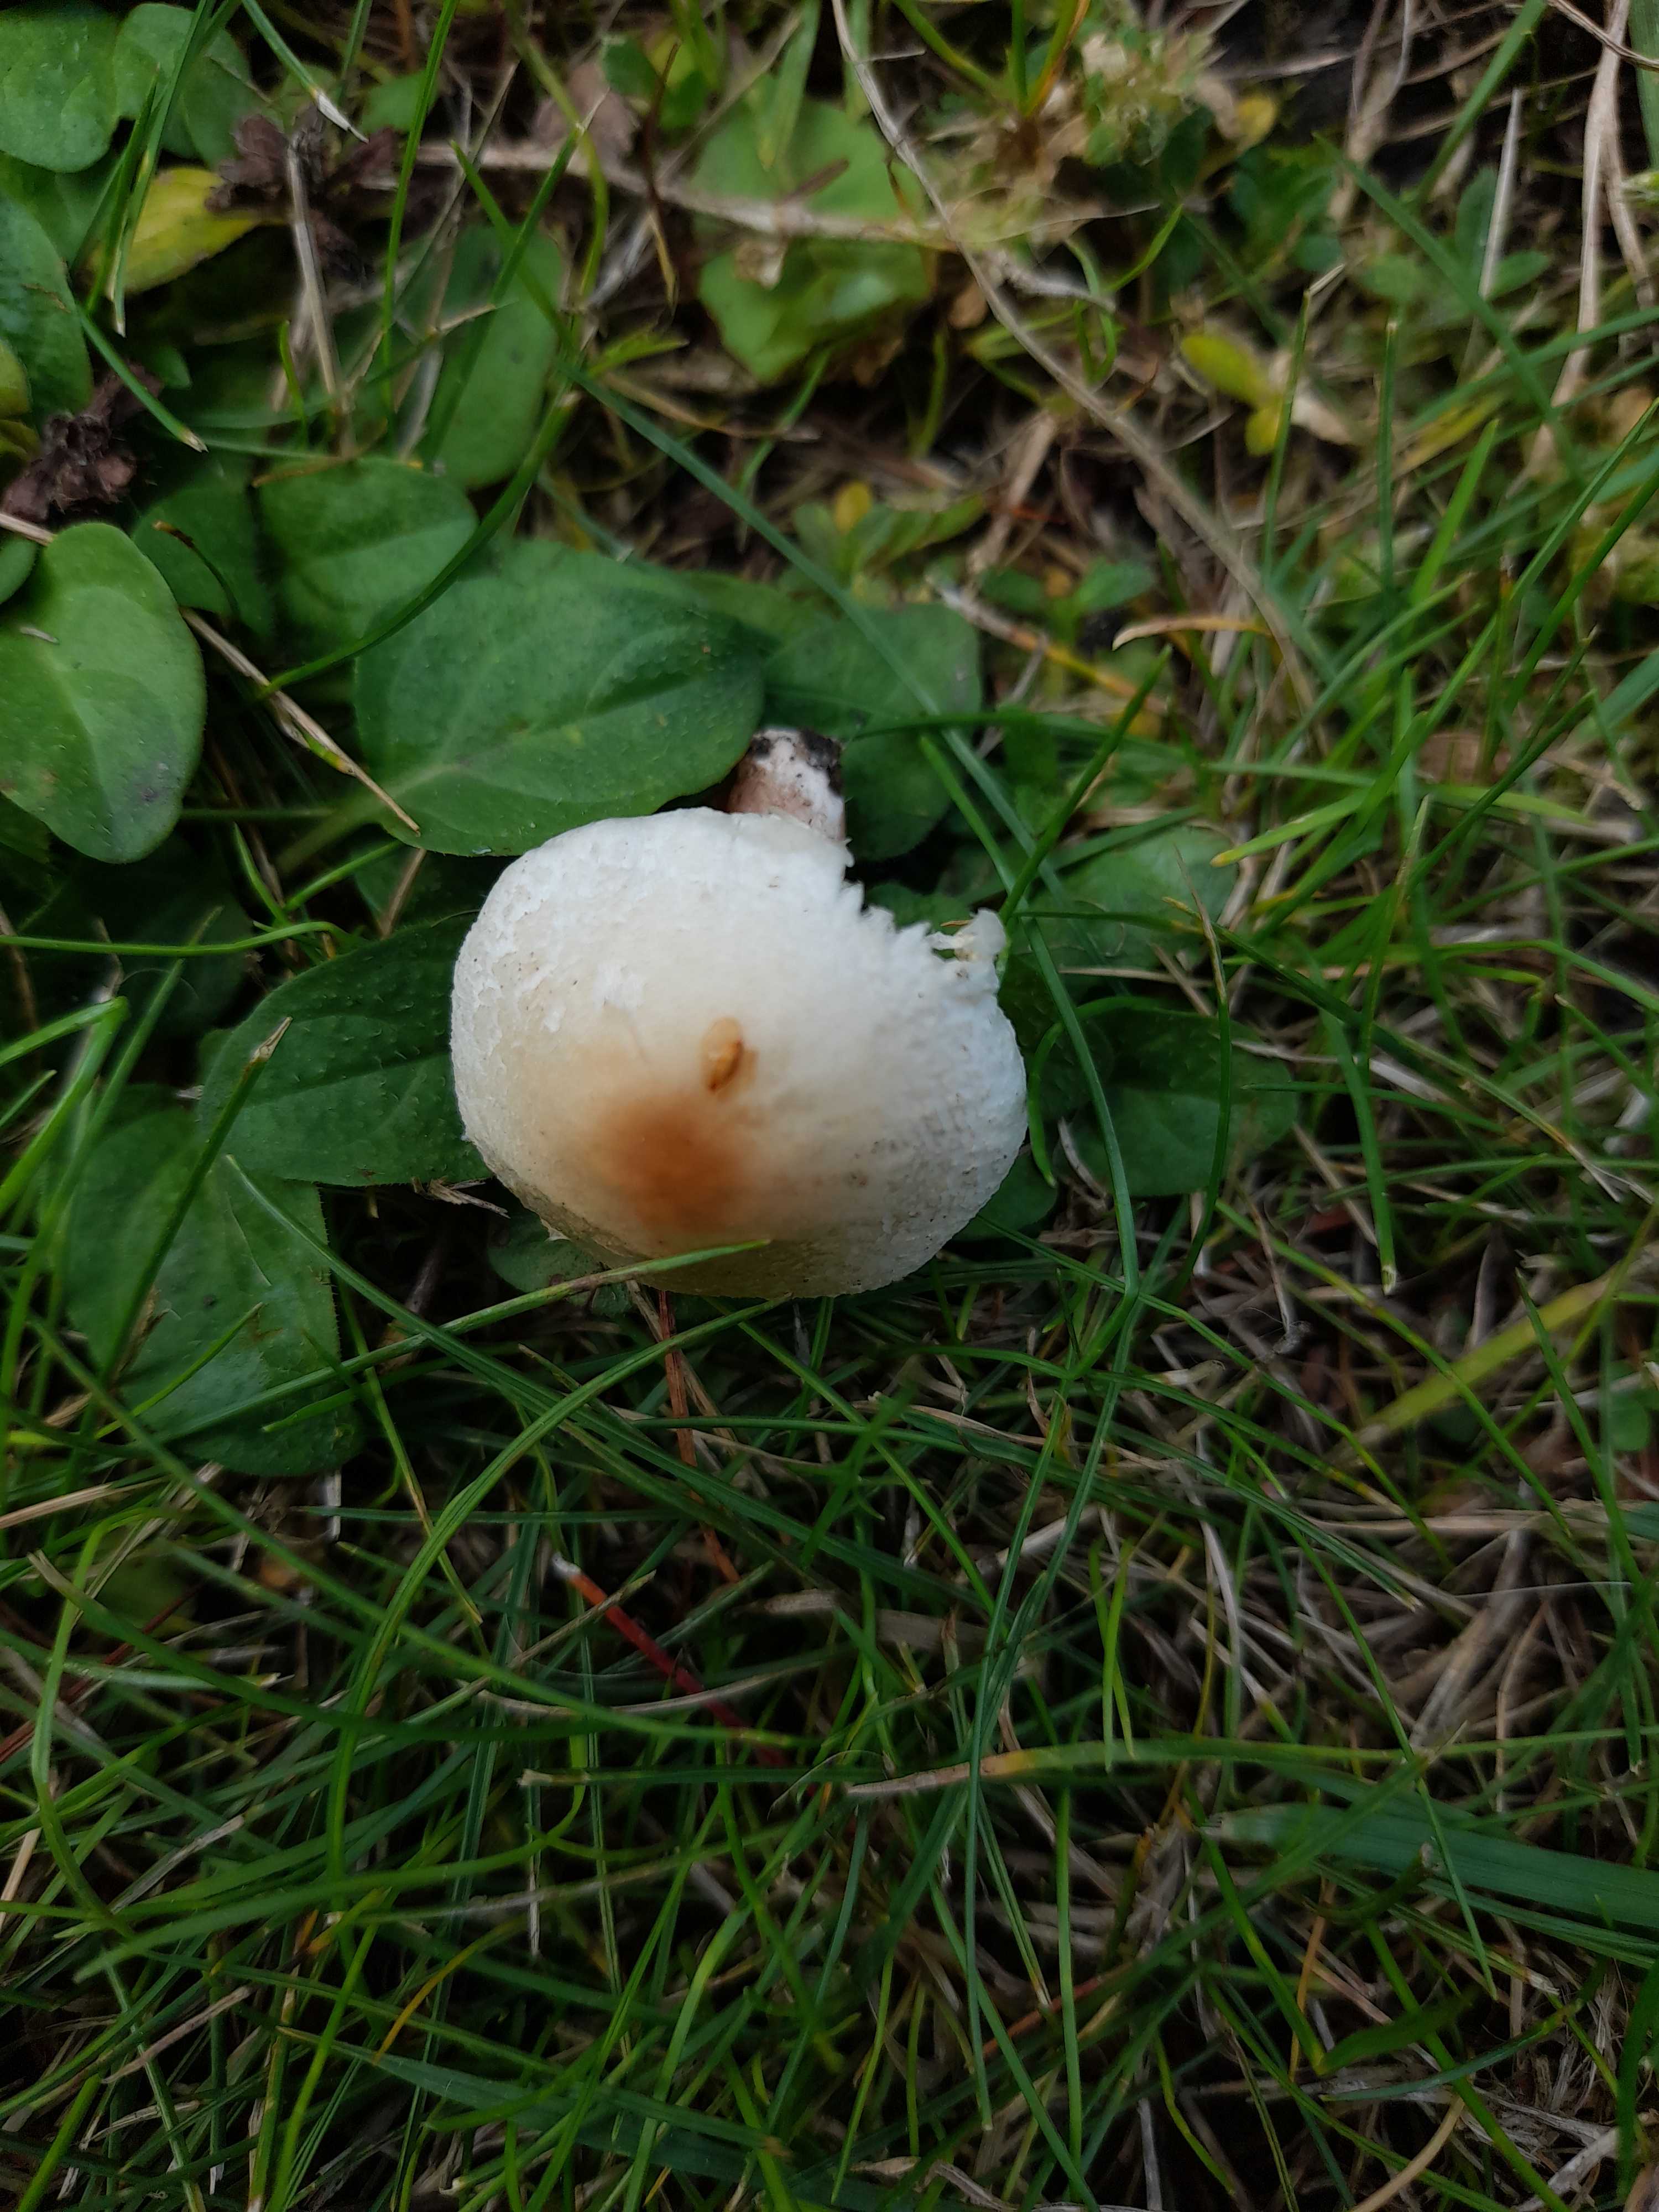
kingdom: Fungi
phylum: Basidiomycota
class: Agaricomycetes
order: Agaricales
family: Agaricaceae
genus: Lepiota
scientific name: Lepiota cristata
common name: stinkende parasolhat
